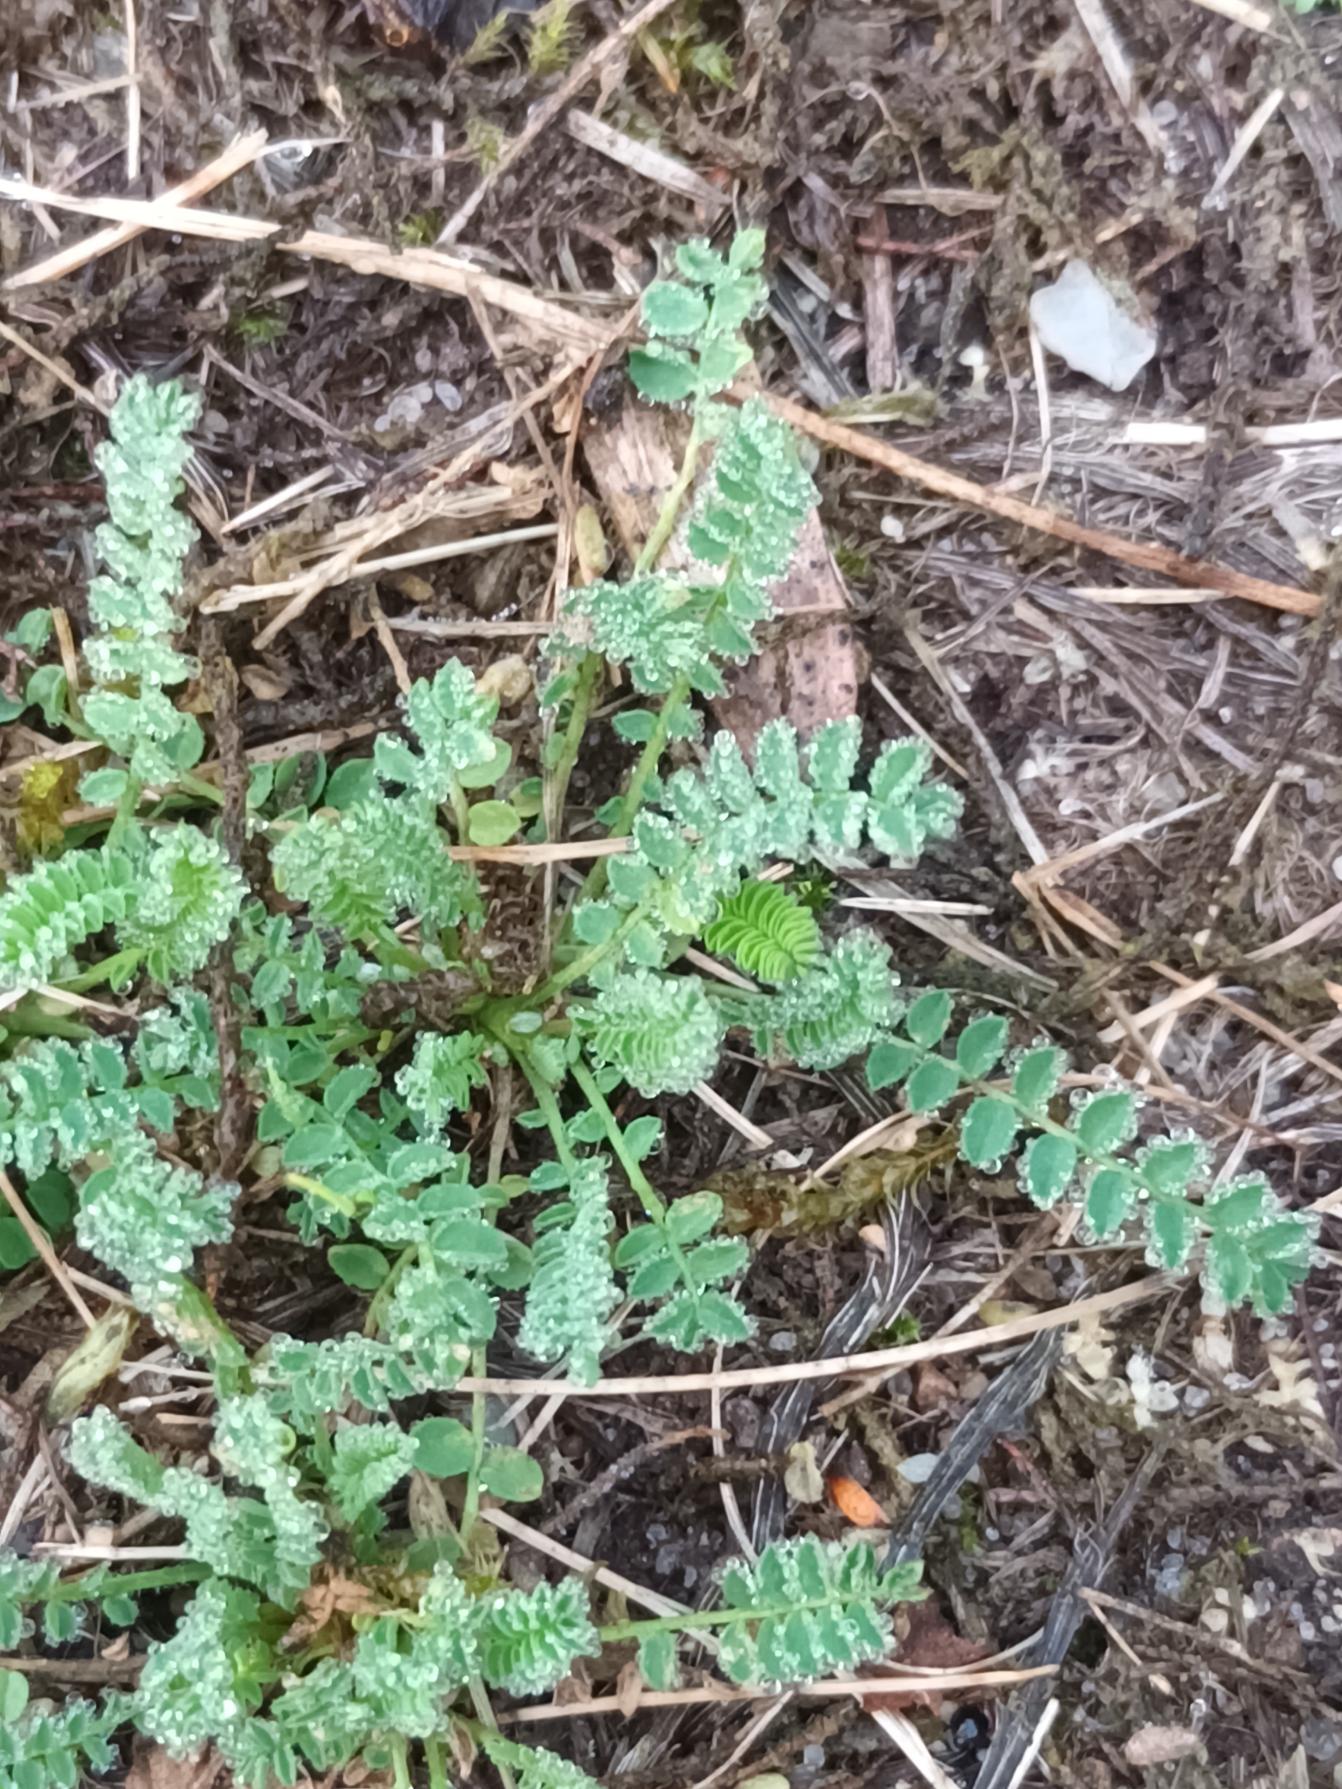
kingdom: Plantae
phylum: Tracheophyta
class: Magnoliopsida
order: Fabales
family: Fabaceae
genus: Ornithopus
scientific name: Ornithopus perpusillus
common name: Liden fugleklo
